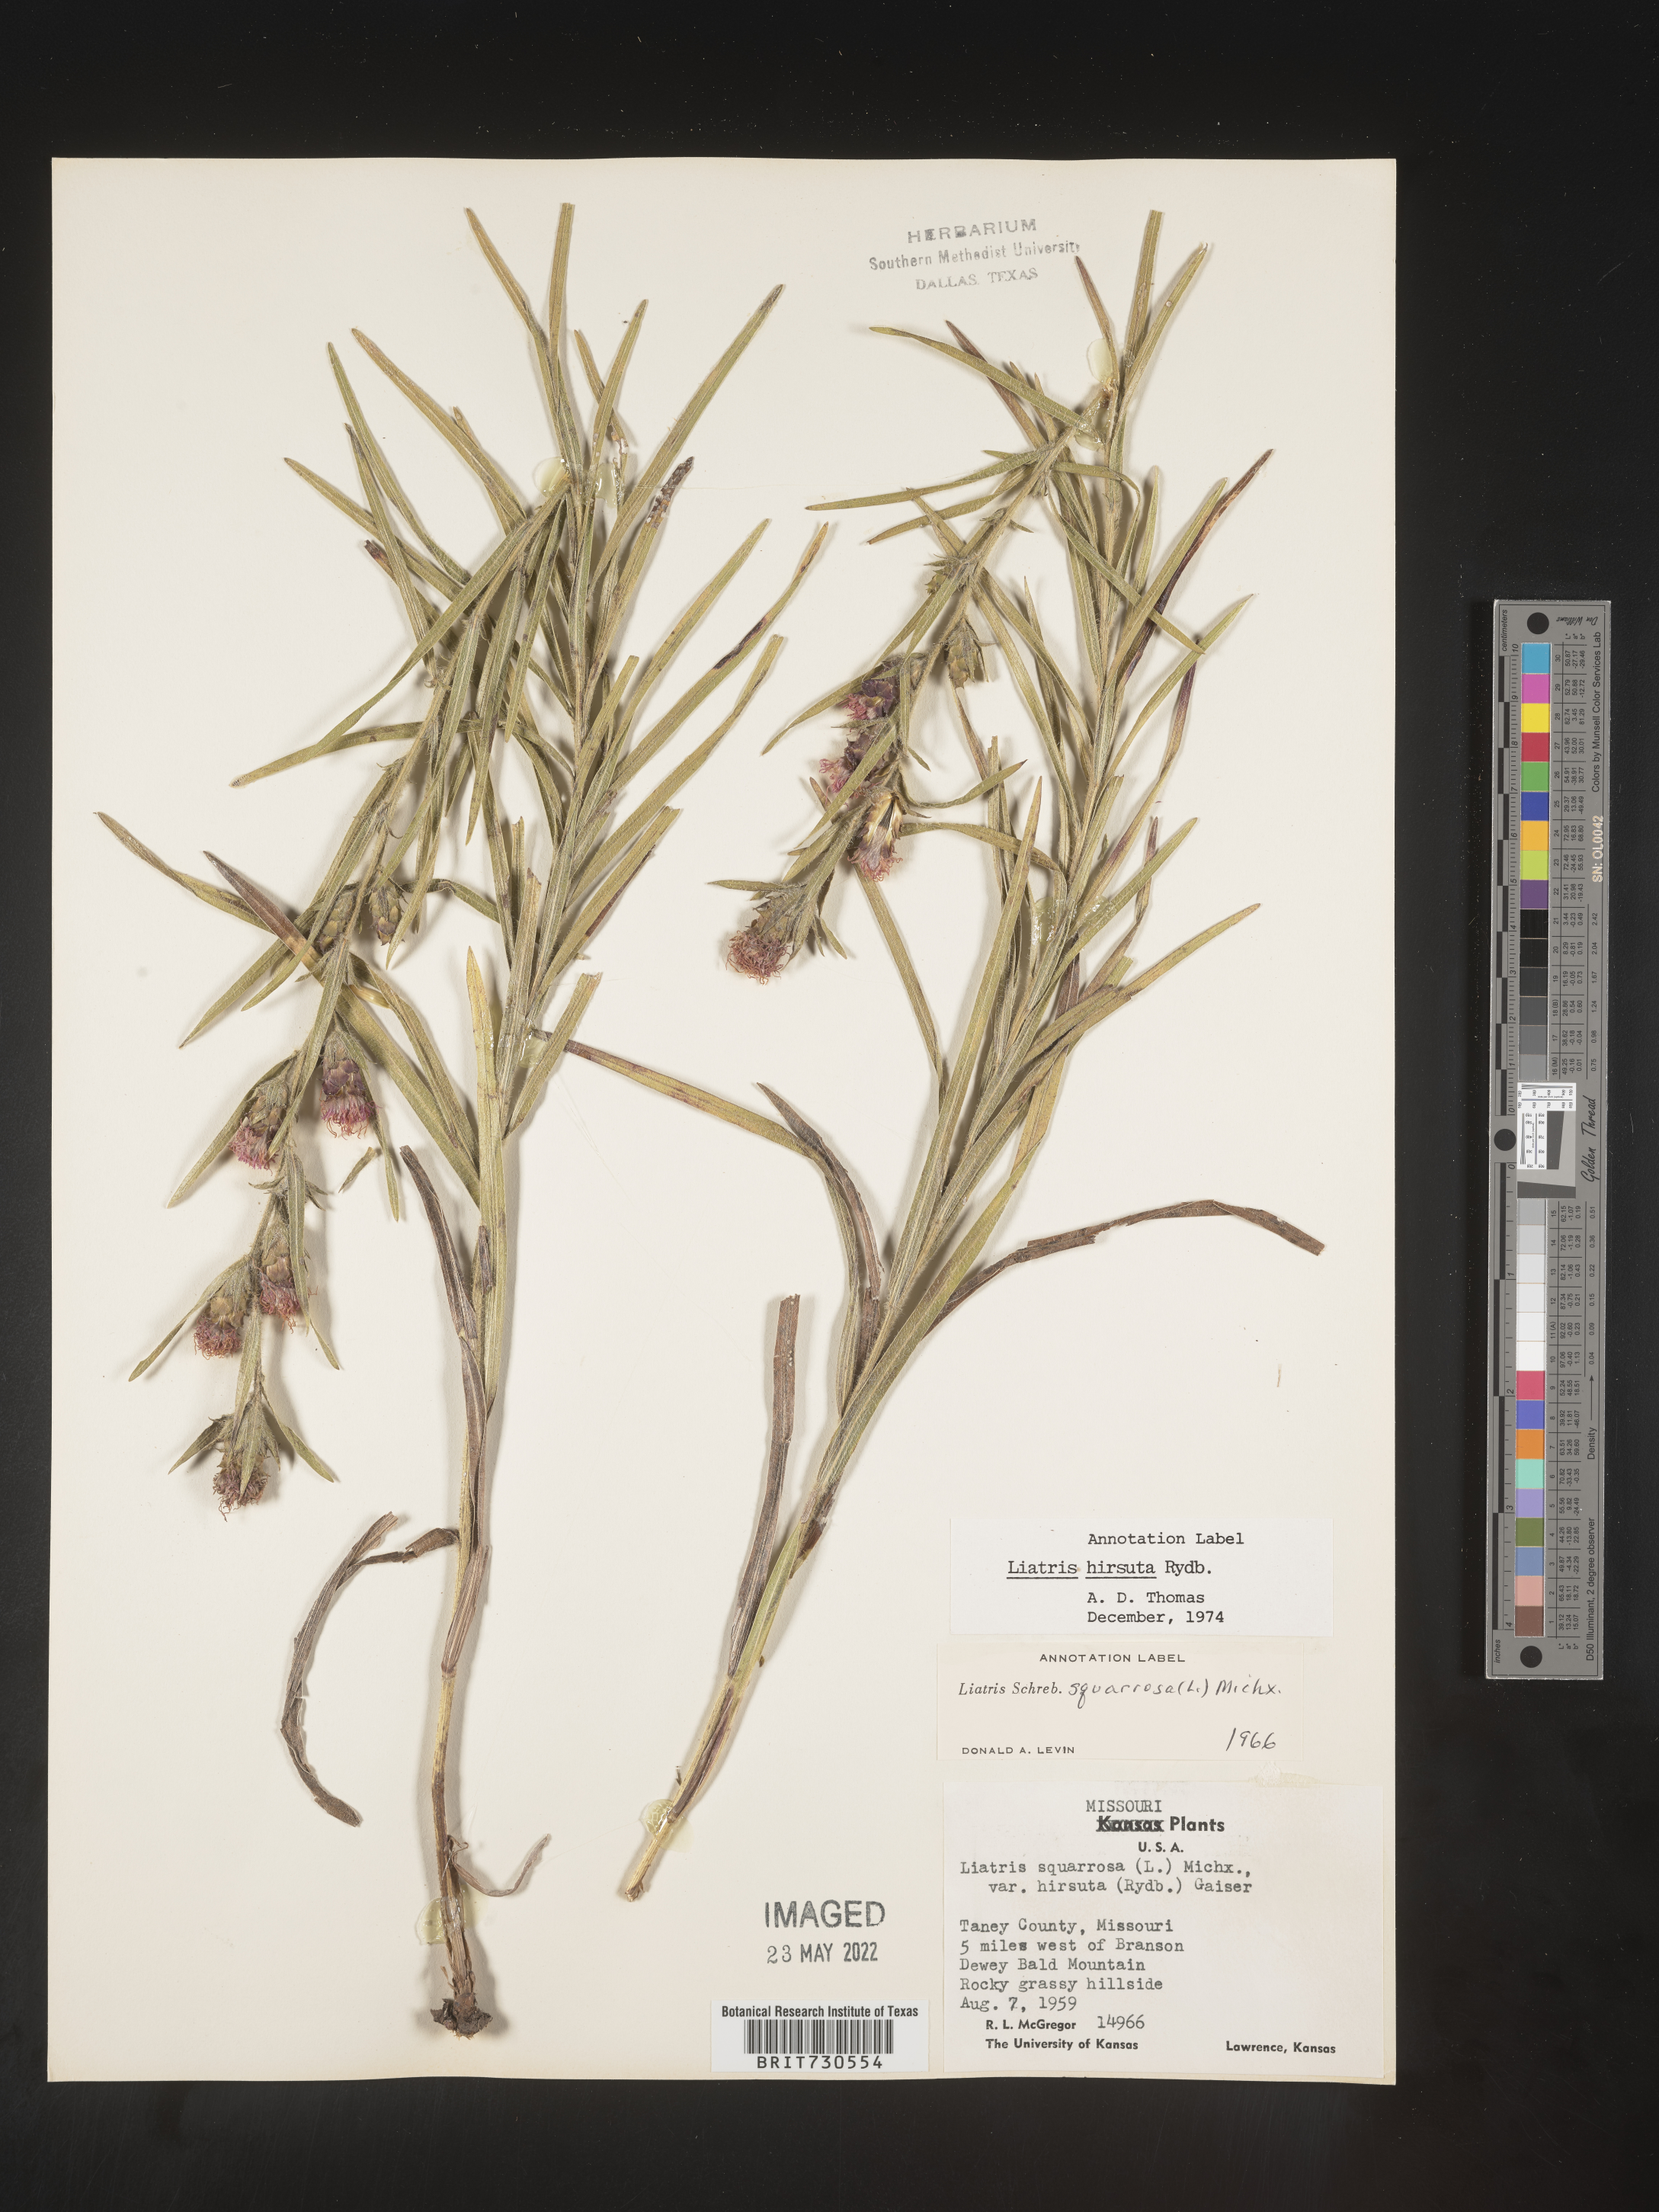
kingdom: Plantae
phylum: Tracheophyta
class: Magnoliopsida
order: Asterales
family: Asteraceae
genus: Liatris
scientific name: Liatris hirsuta
